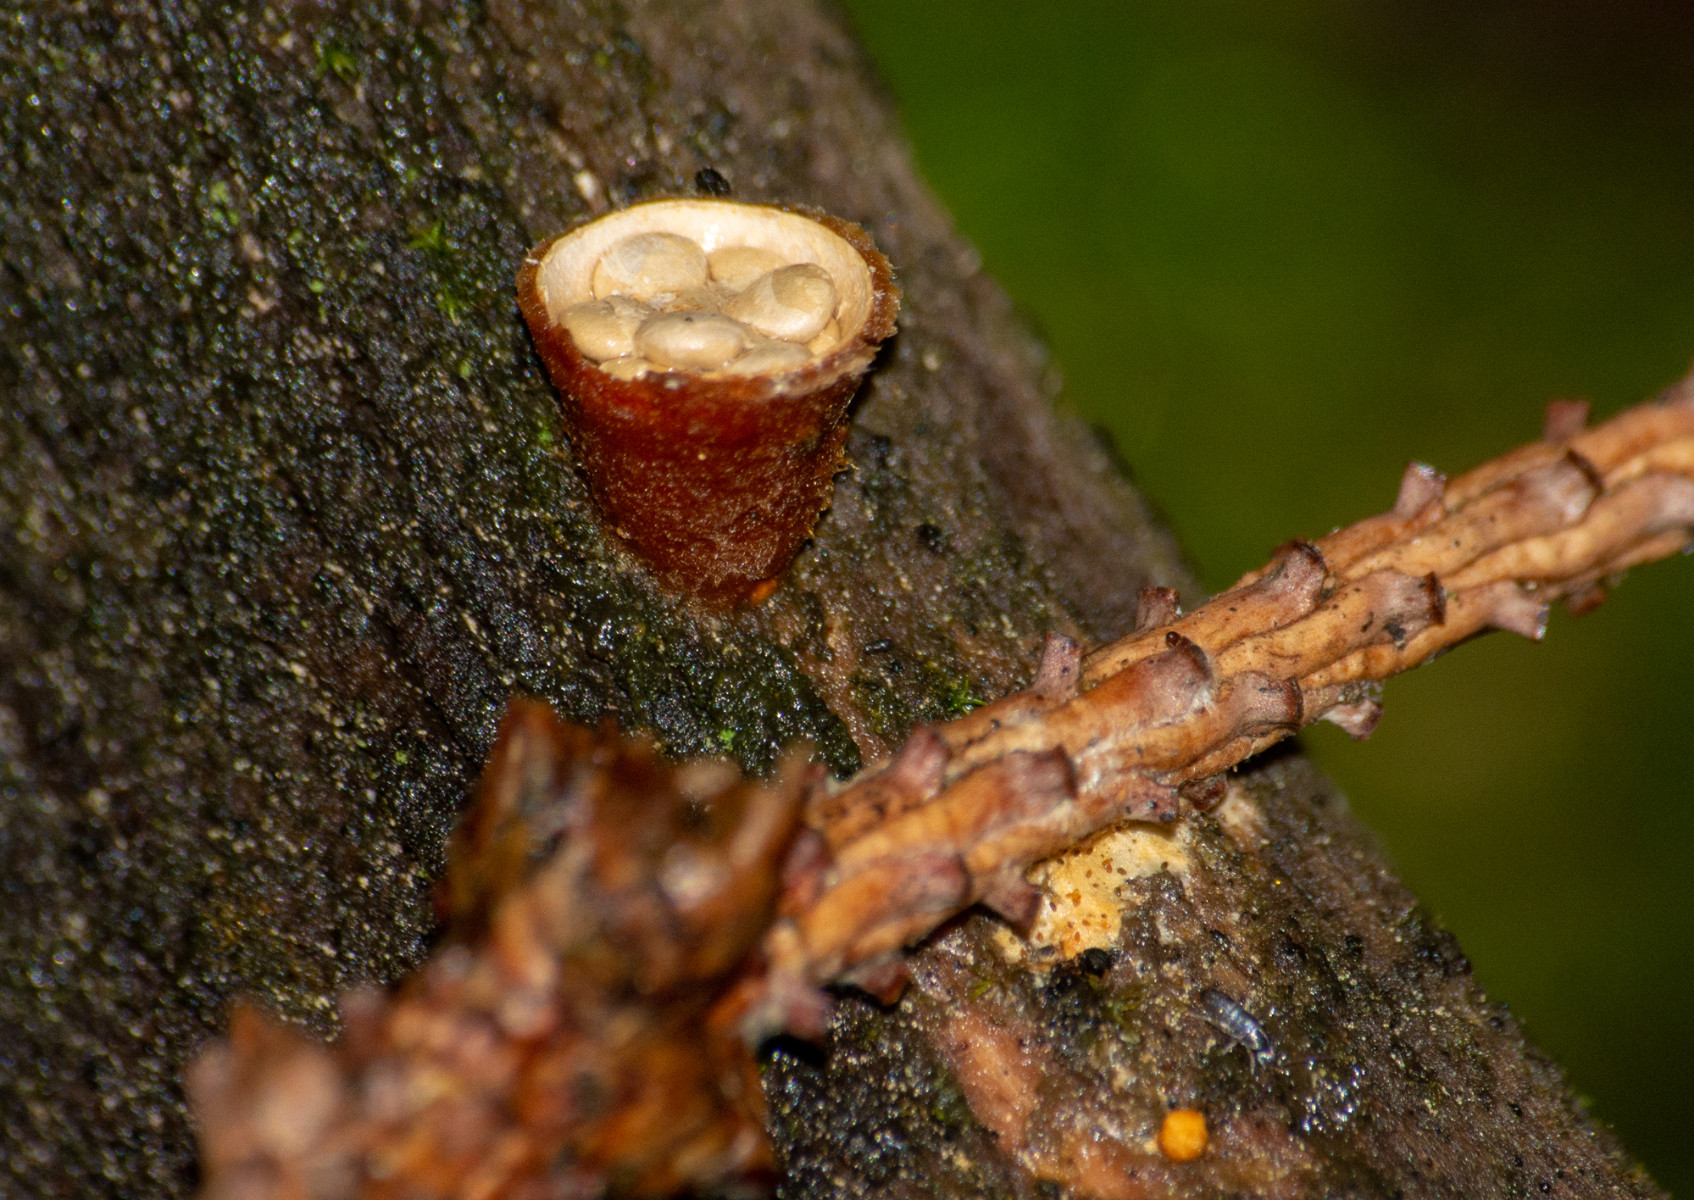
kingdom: Fungi
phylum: Basidiomycota
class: Agaricomycetes
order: Agaricales
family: Nidulariaceae
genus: Crucibulum
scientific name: Crucibulum crucibuliforme
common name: krukkesvamp
